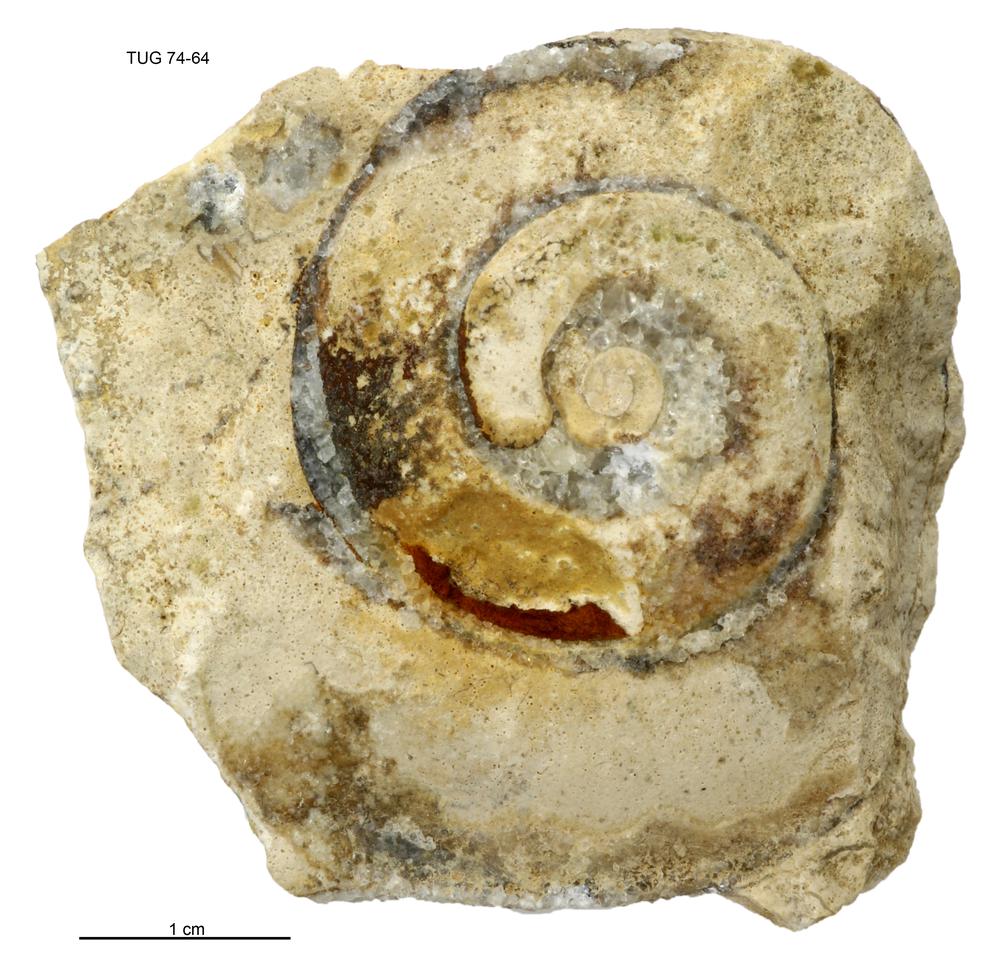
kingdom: Animalia
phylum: Mollusca
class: Gastropoda
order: Pleurotomariida
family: Eotomariidae
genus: Liospira
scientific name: Liospira Raphistoma wesenbergense
